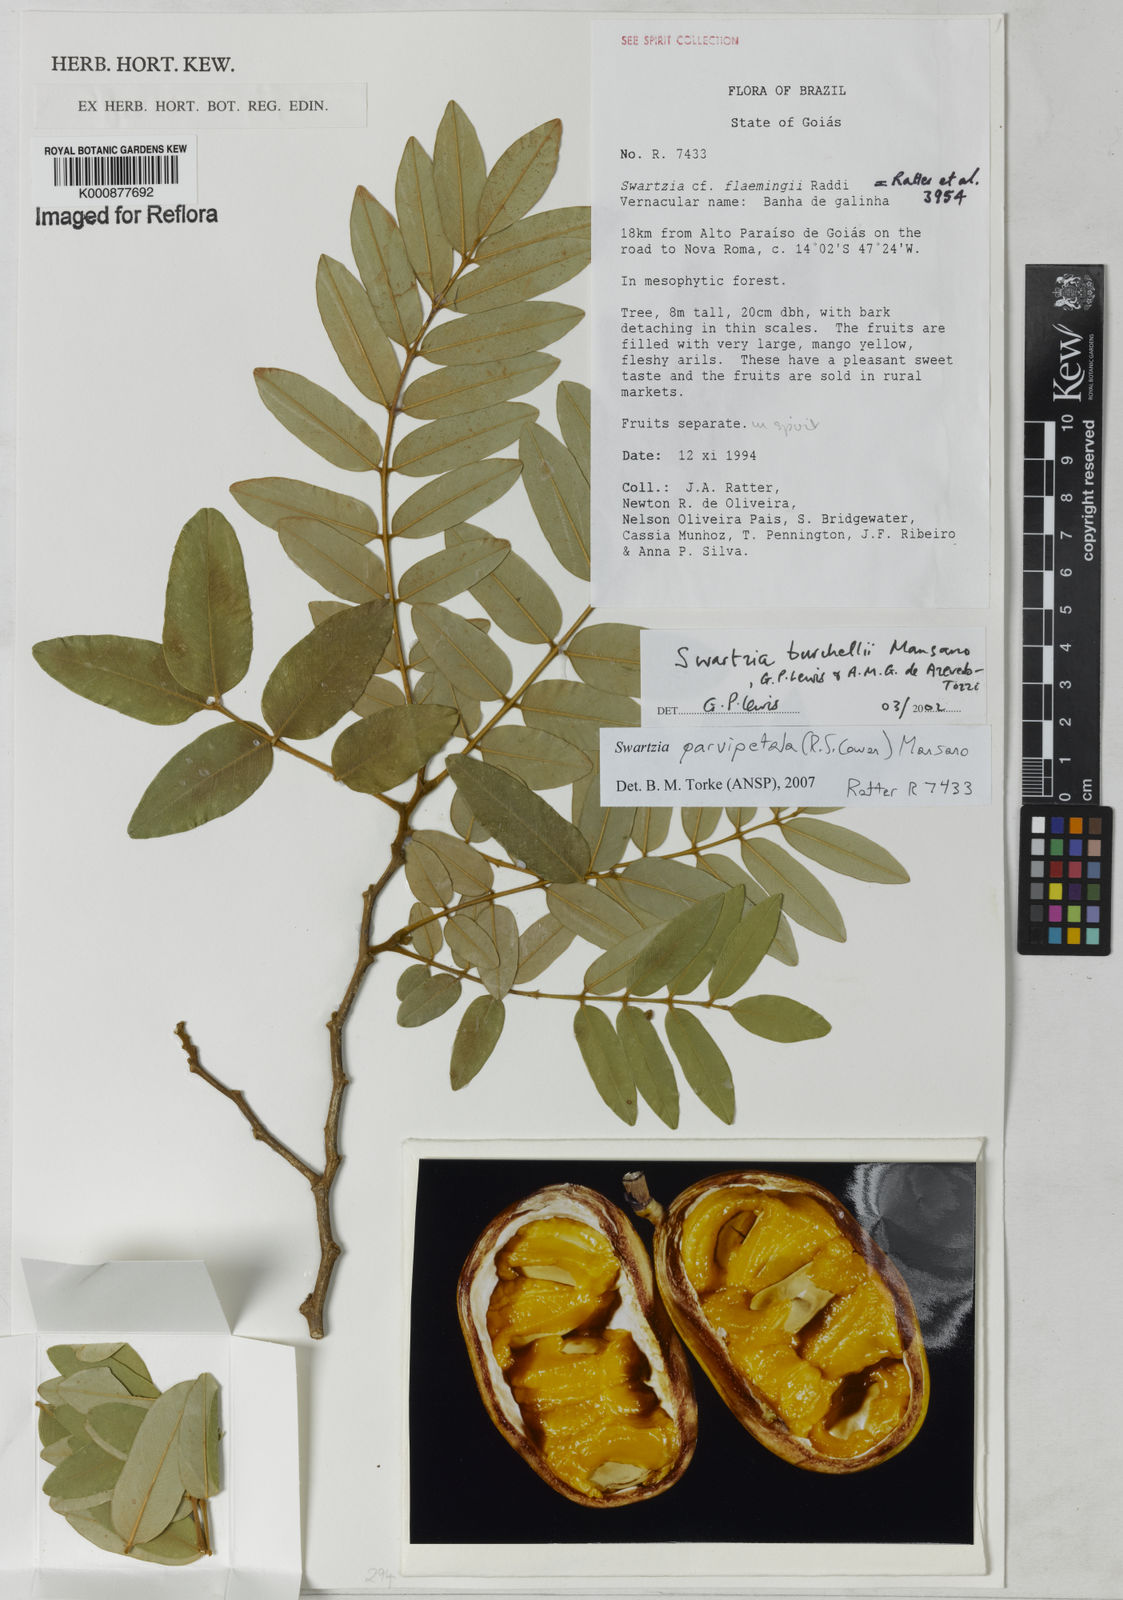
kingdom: Plantae
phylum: Tracheophyta
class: Magnoliopsida
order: Fabales
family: Fabaceae
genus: Swartzia
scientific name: Swartzia parvipetala
